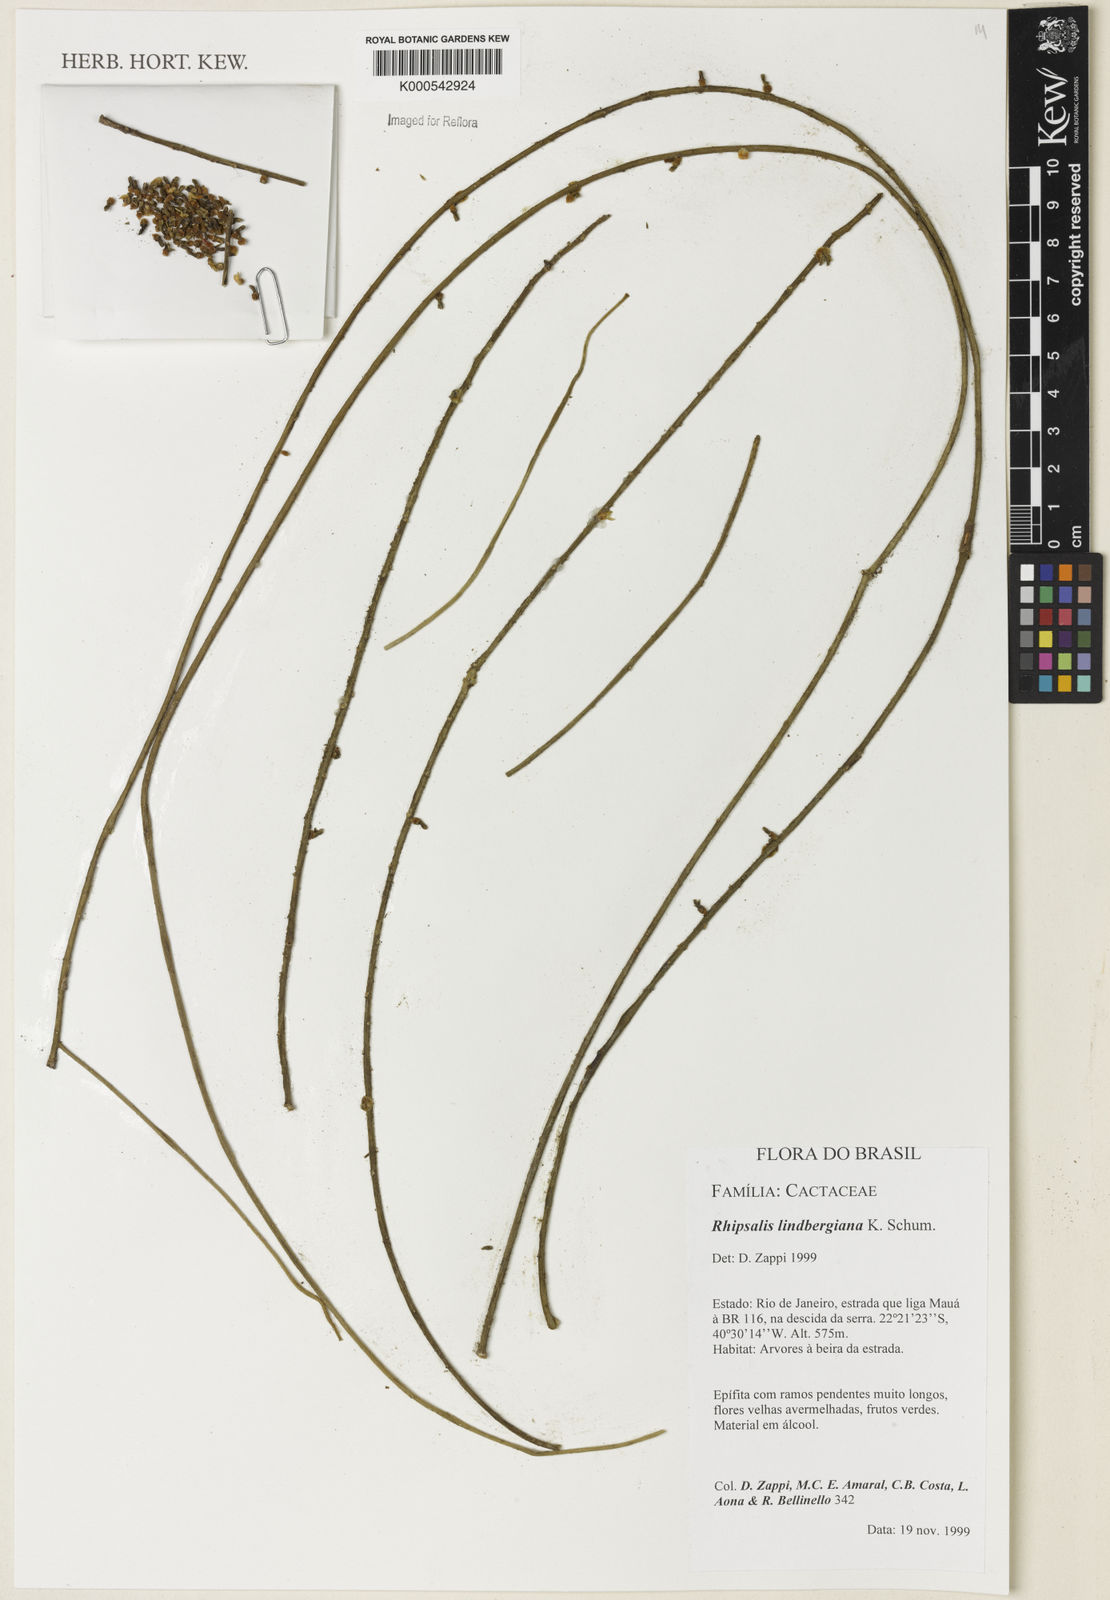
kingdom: Plantae
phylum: Tracheophyta
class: Magnoliopsida
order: Caryophyllales
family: Cactaceae
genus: Rhipsalis
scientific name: Rhipsalis lindbergiana
